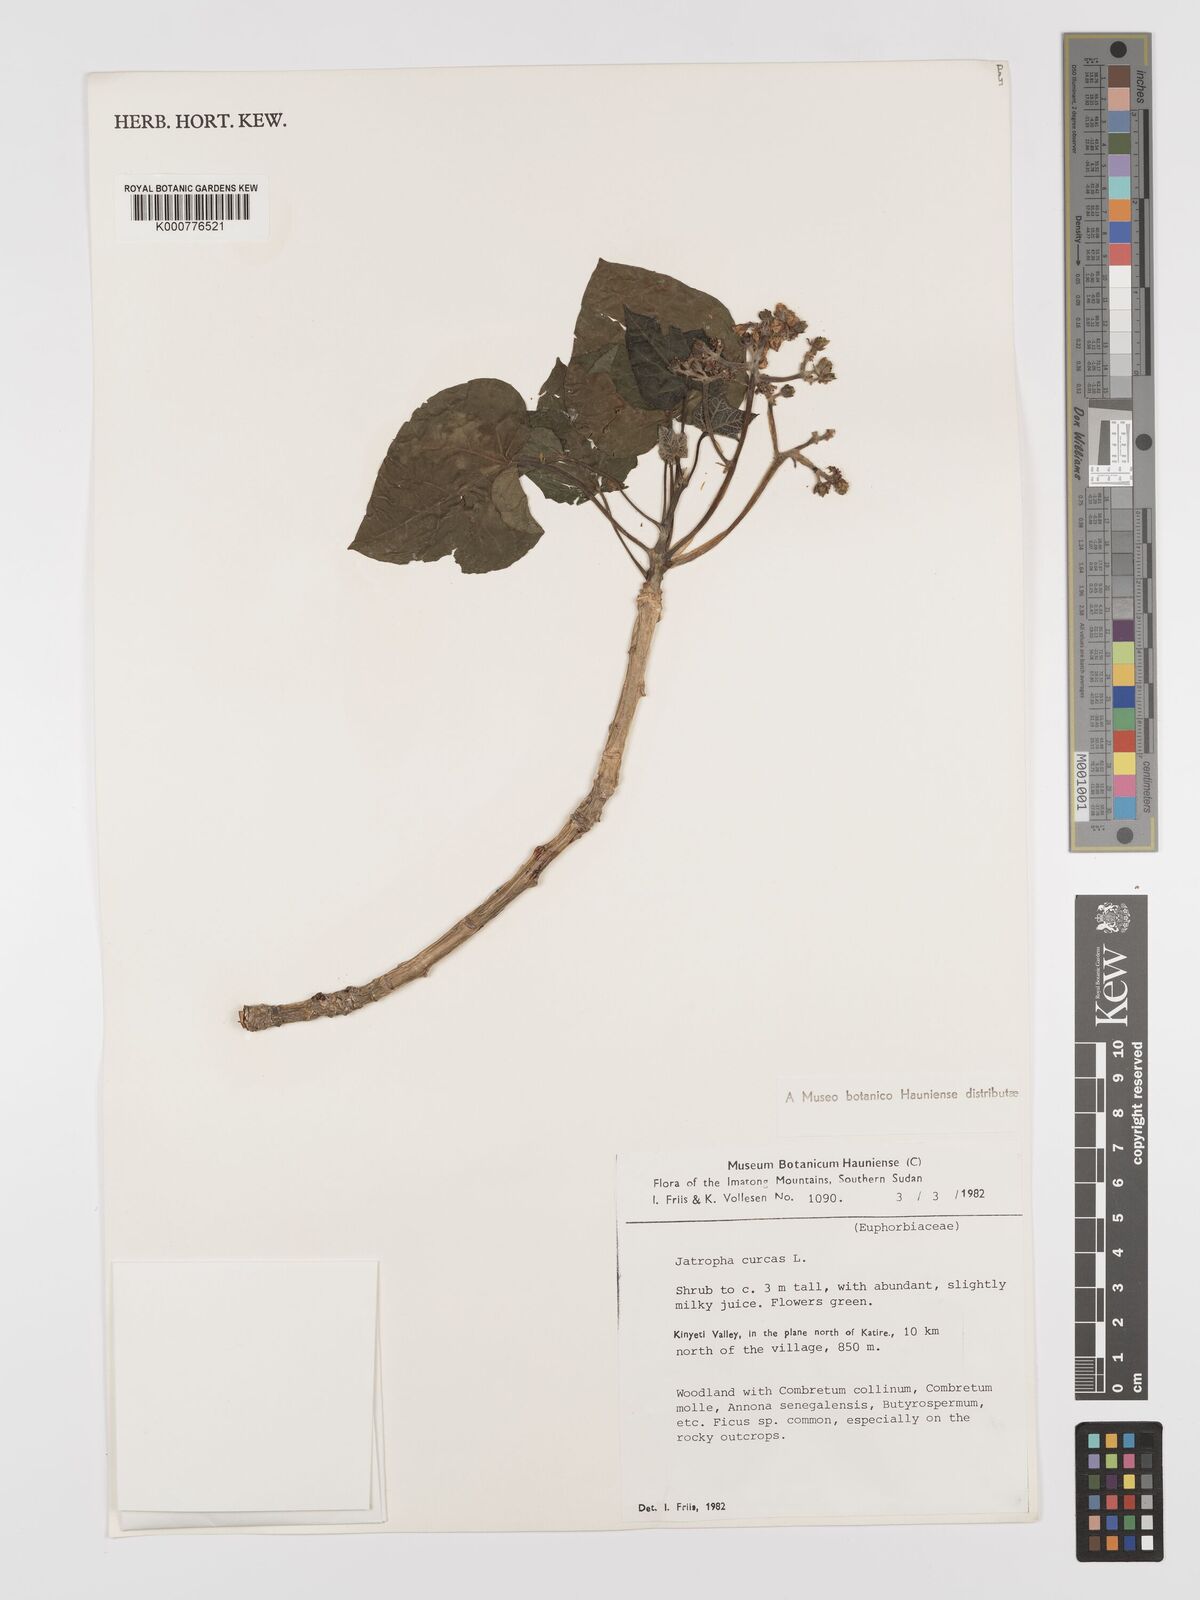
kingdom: Plantae
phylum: Tracheophyta
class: Magnoliopsida
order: Malpighiales
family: Euphorbiaceae
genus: Jatropha
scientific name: Jatropha curcas
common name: Barbados nut
